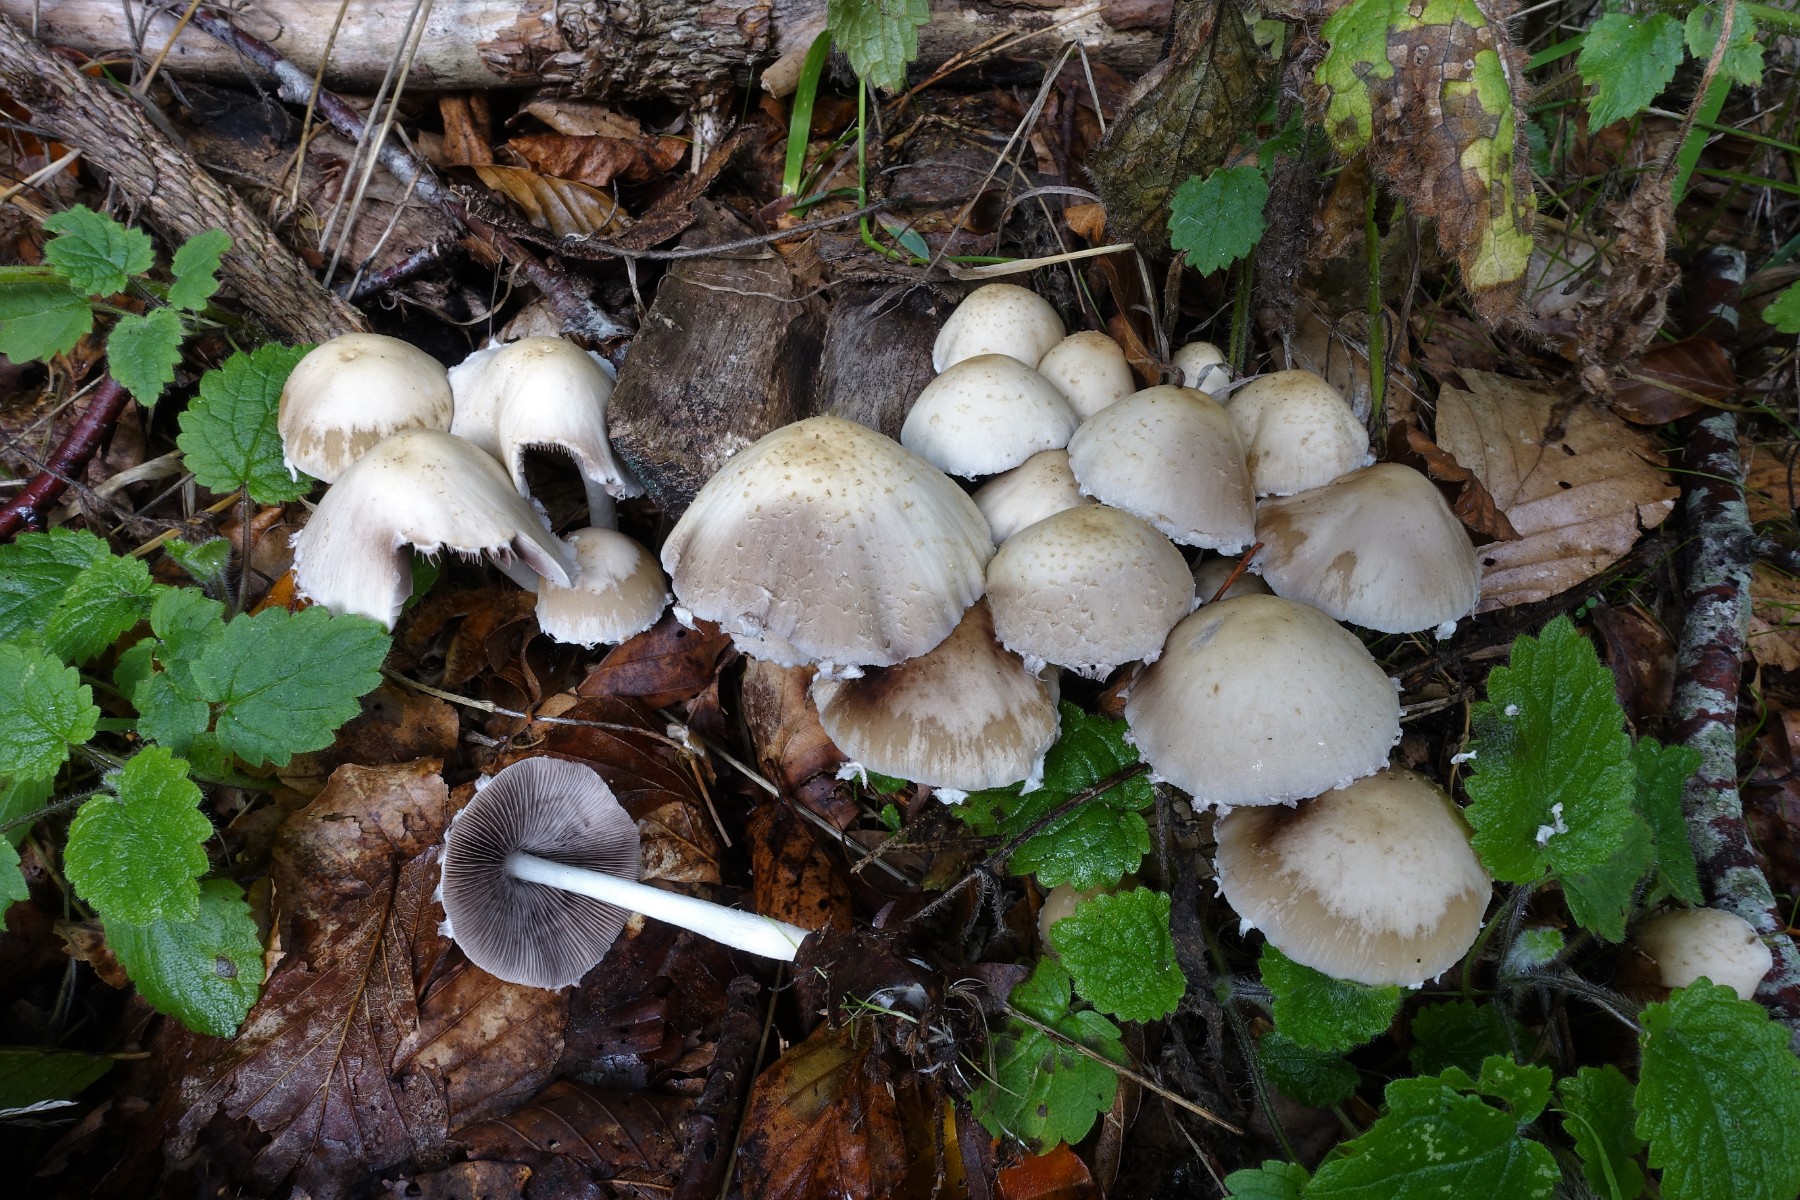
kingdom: Fungi
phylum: Basidiomycota
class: Agaricomycetes
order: Agaricales
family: Psathyrellaceae
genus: Candolleomyces
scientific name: Candolleomyces candolleanus
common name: Candolles mørkhat
